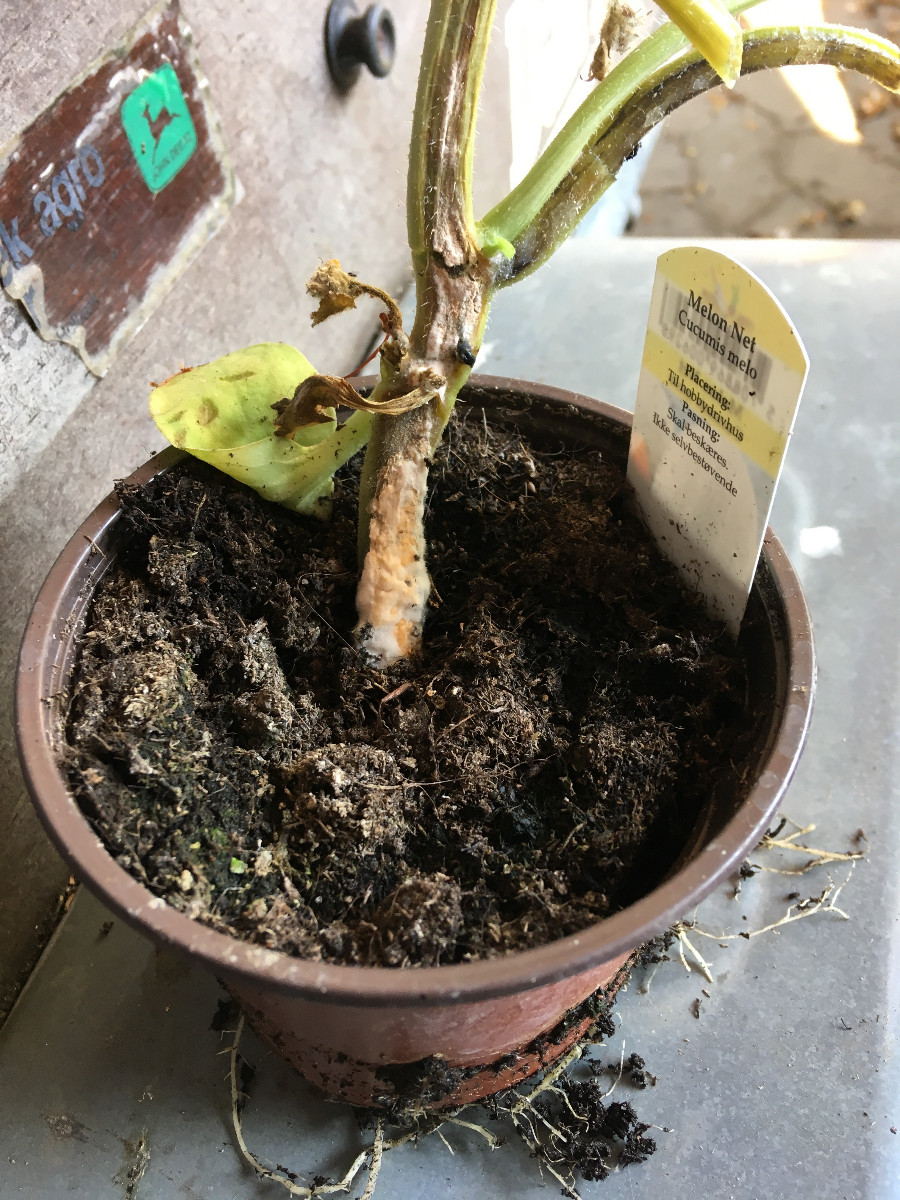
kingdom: Fungi
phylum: Ascomycota
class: Sordariomycetes
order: Hypocreales
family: Nectriaceae
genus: Fusarium
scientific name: Fusarium oxysporum
